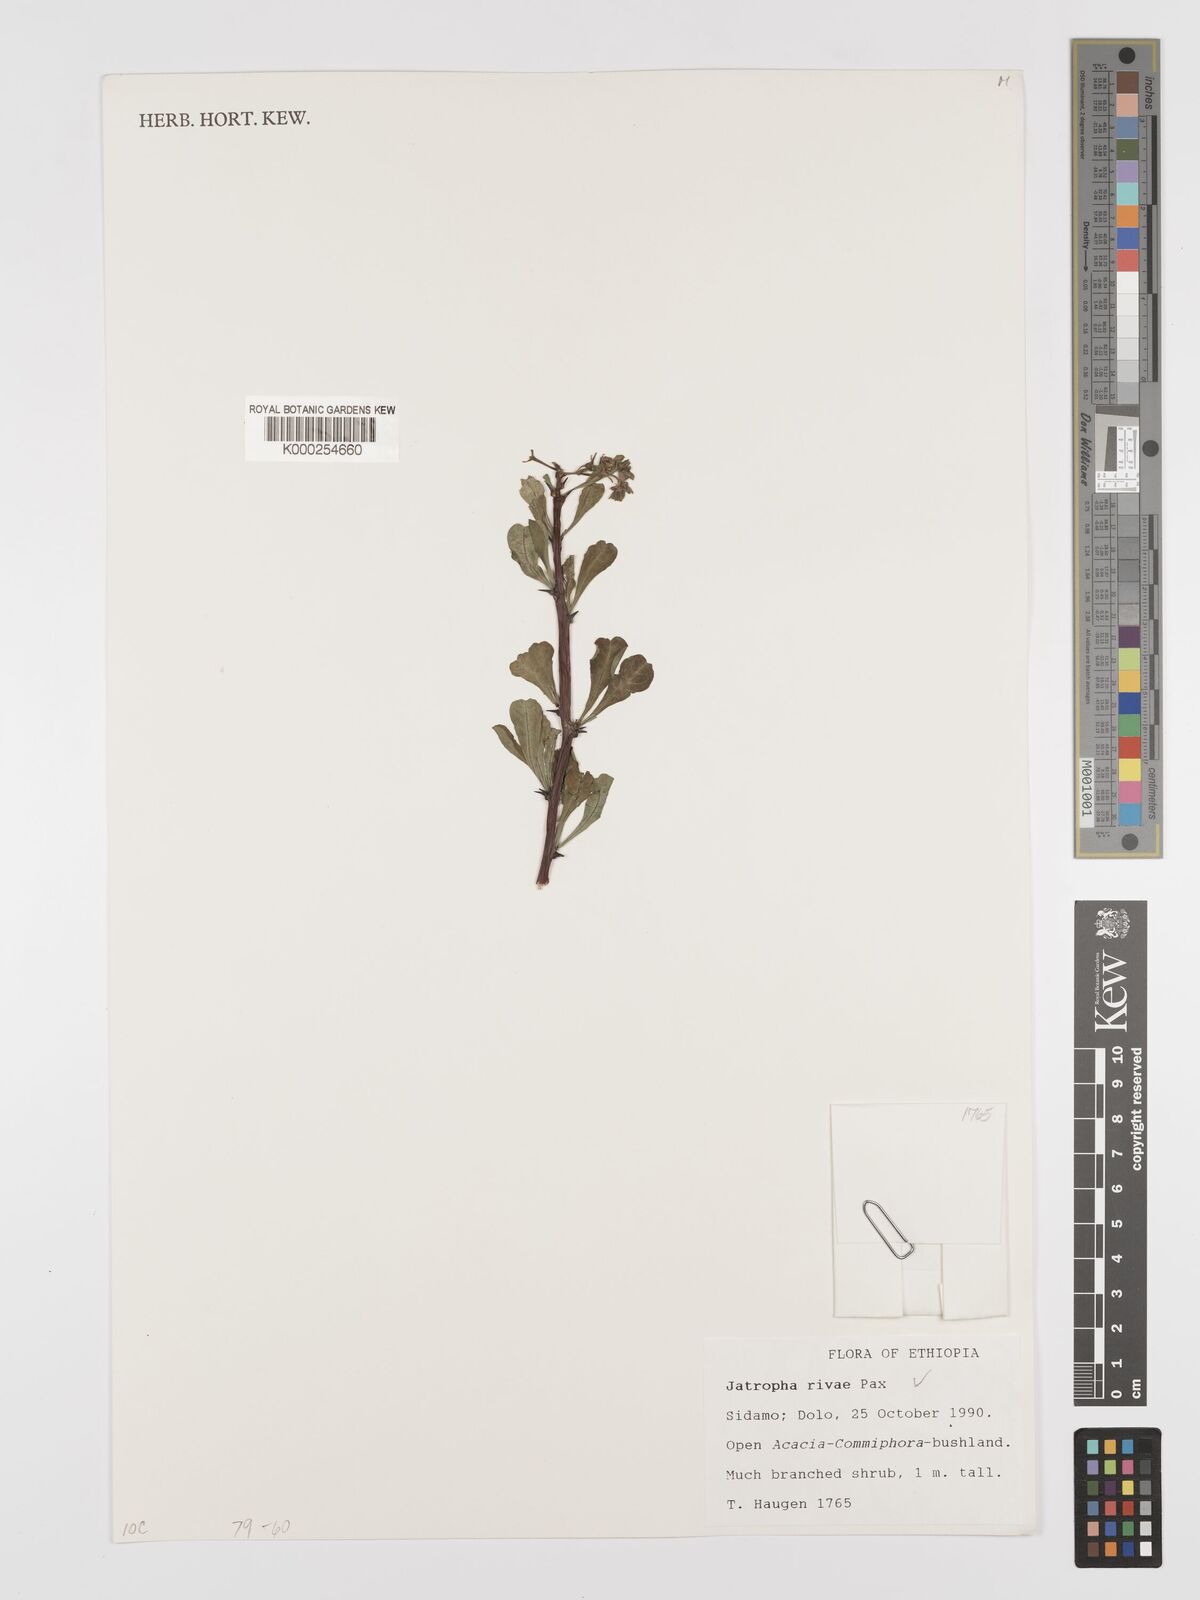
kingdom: Plantae
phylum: Tracheophyta
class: Magnoliopsida
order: Malpighiales
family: Euphorbiaceae
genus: Jatropha
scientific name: Jatropha rivae
